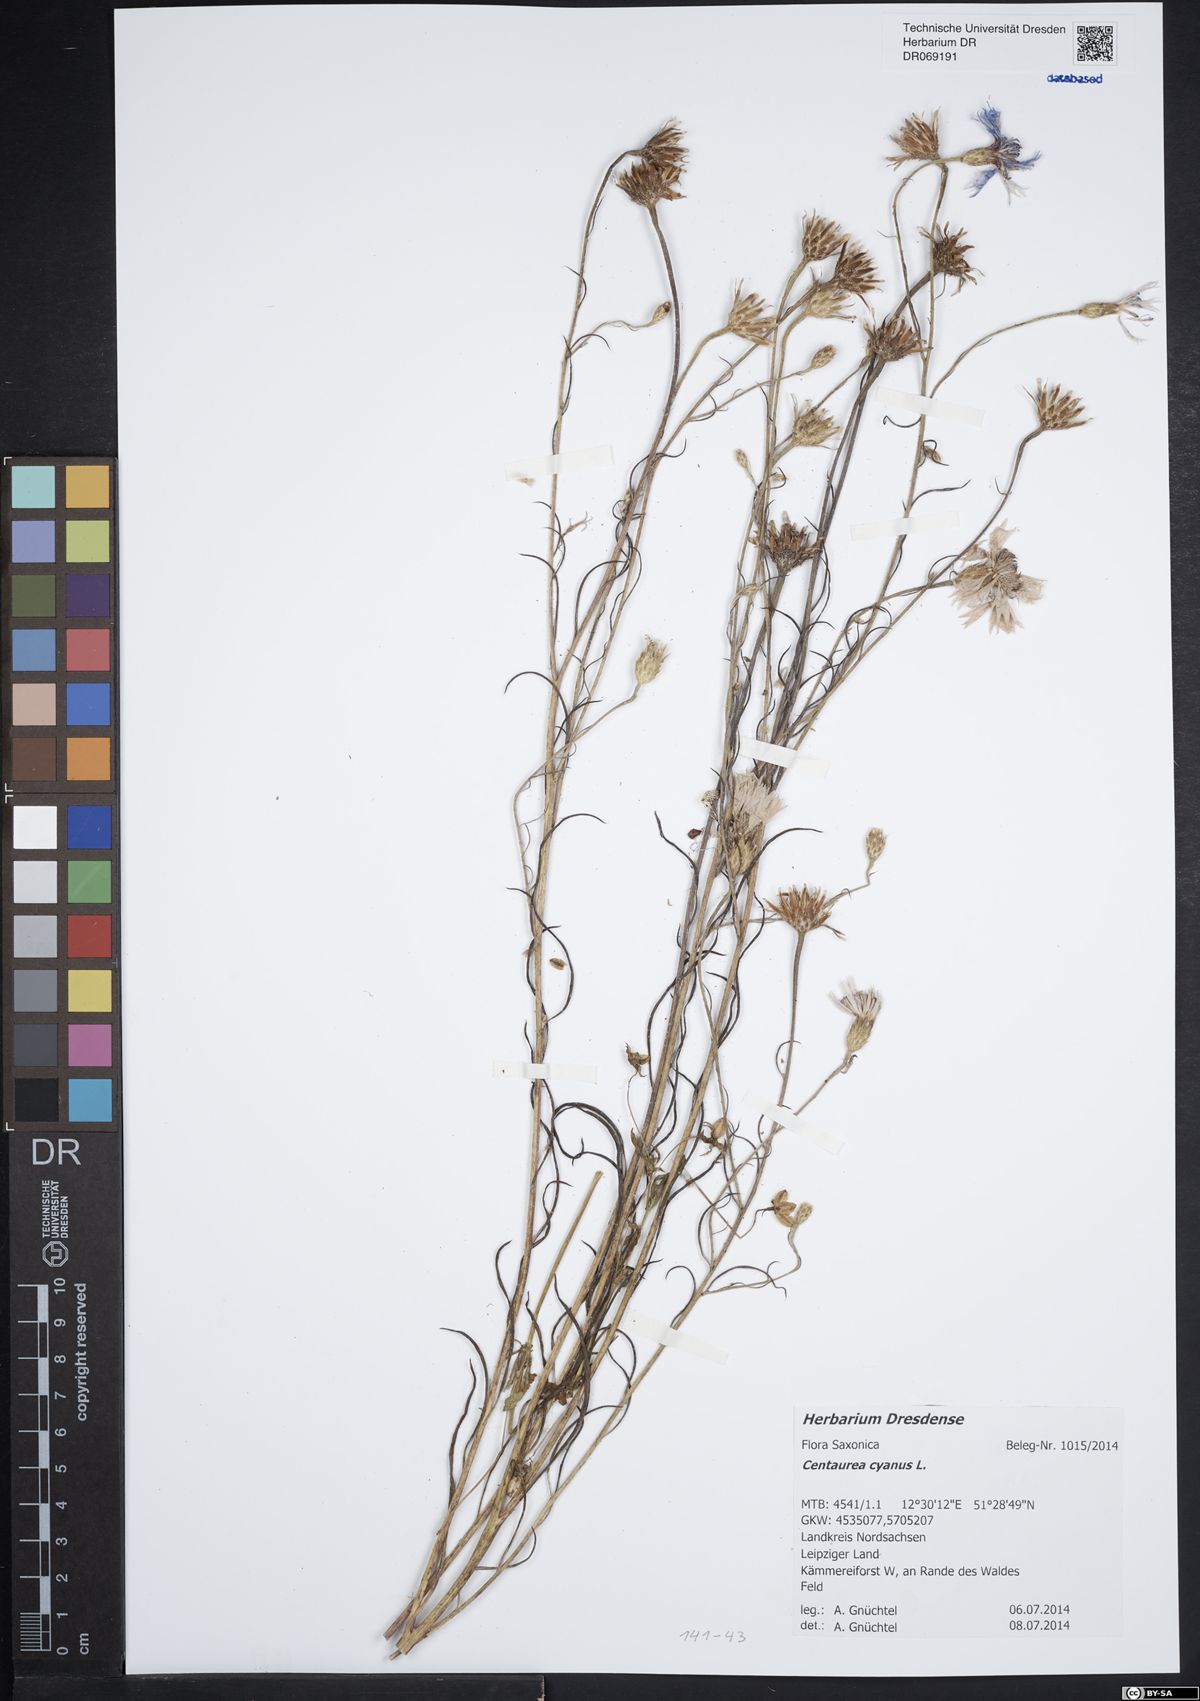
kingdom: Plantae
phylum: Tracheophyta
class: Magnoliopsida
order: Asterales
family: Asteraceae
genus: Centaurea
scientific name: Centaurea cyanus
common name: Cornflower
